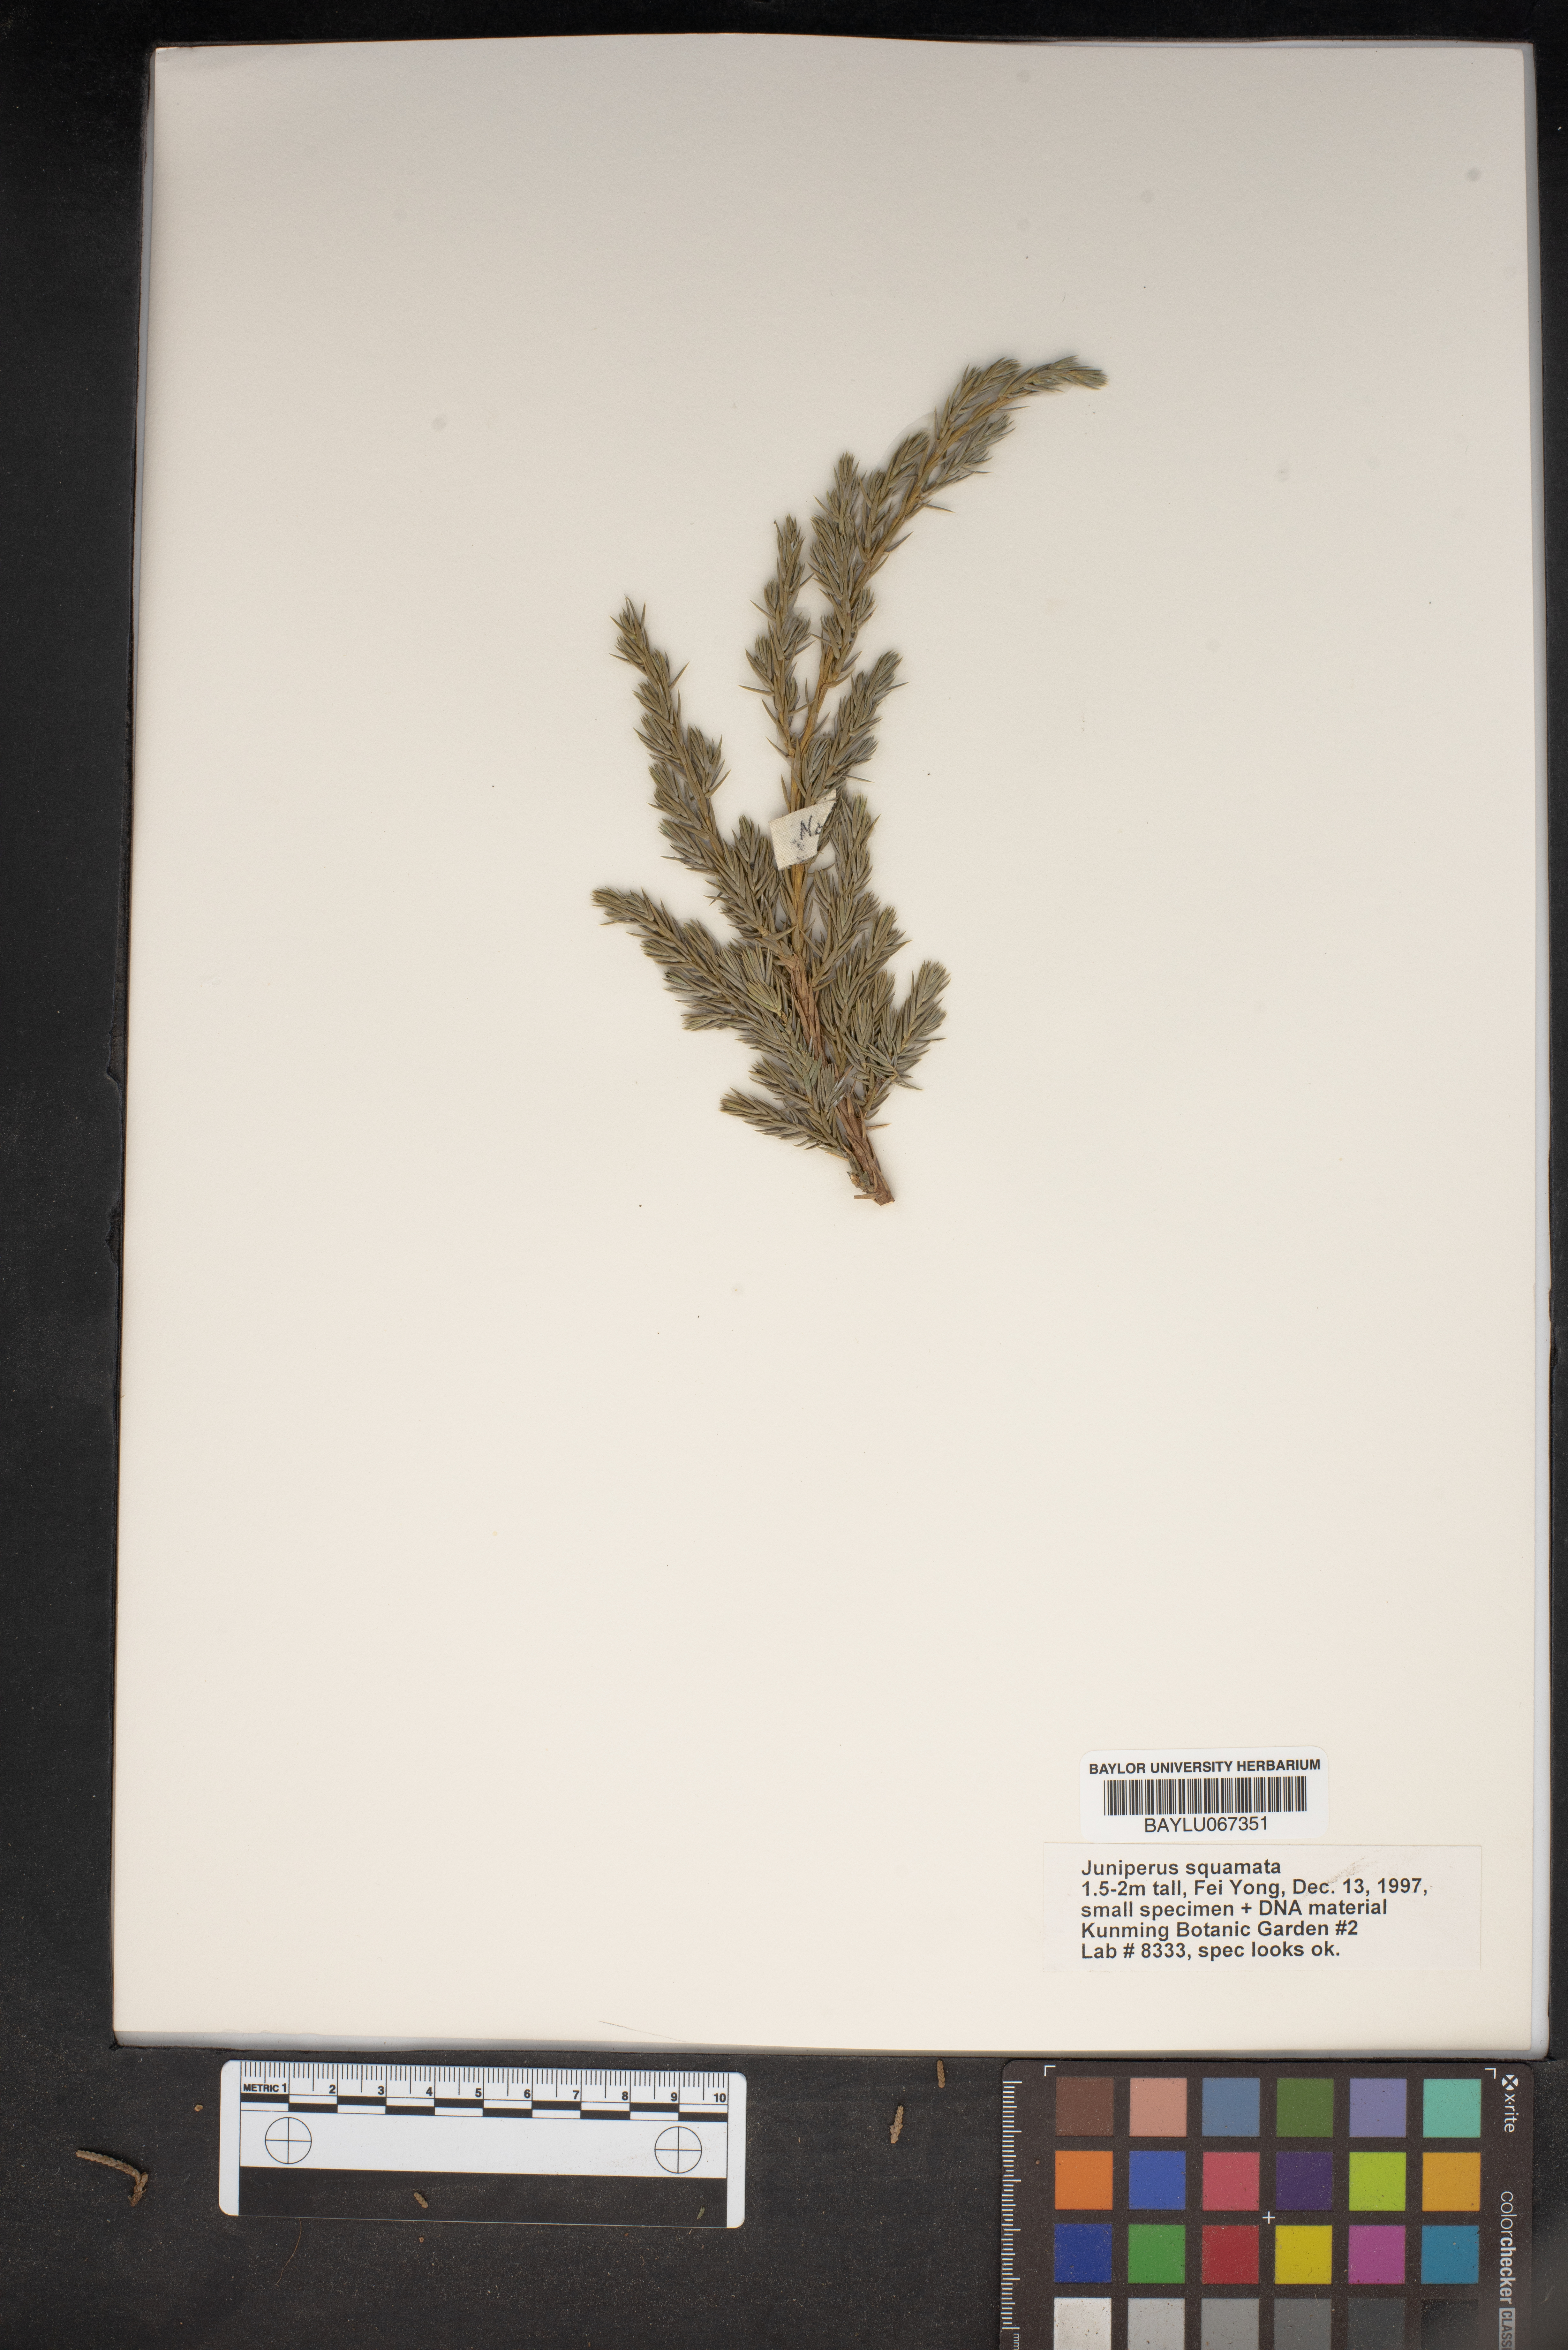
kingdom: Plantae
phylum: Tracheophyta
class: Pinopsida
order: Pinales
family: Cupressaceae
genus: Juniperus
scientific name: Juniperus squamata
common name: Flaky juniper
